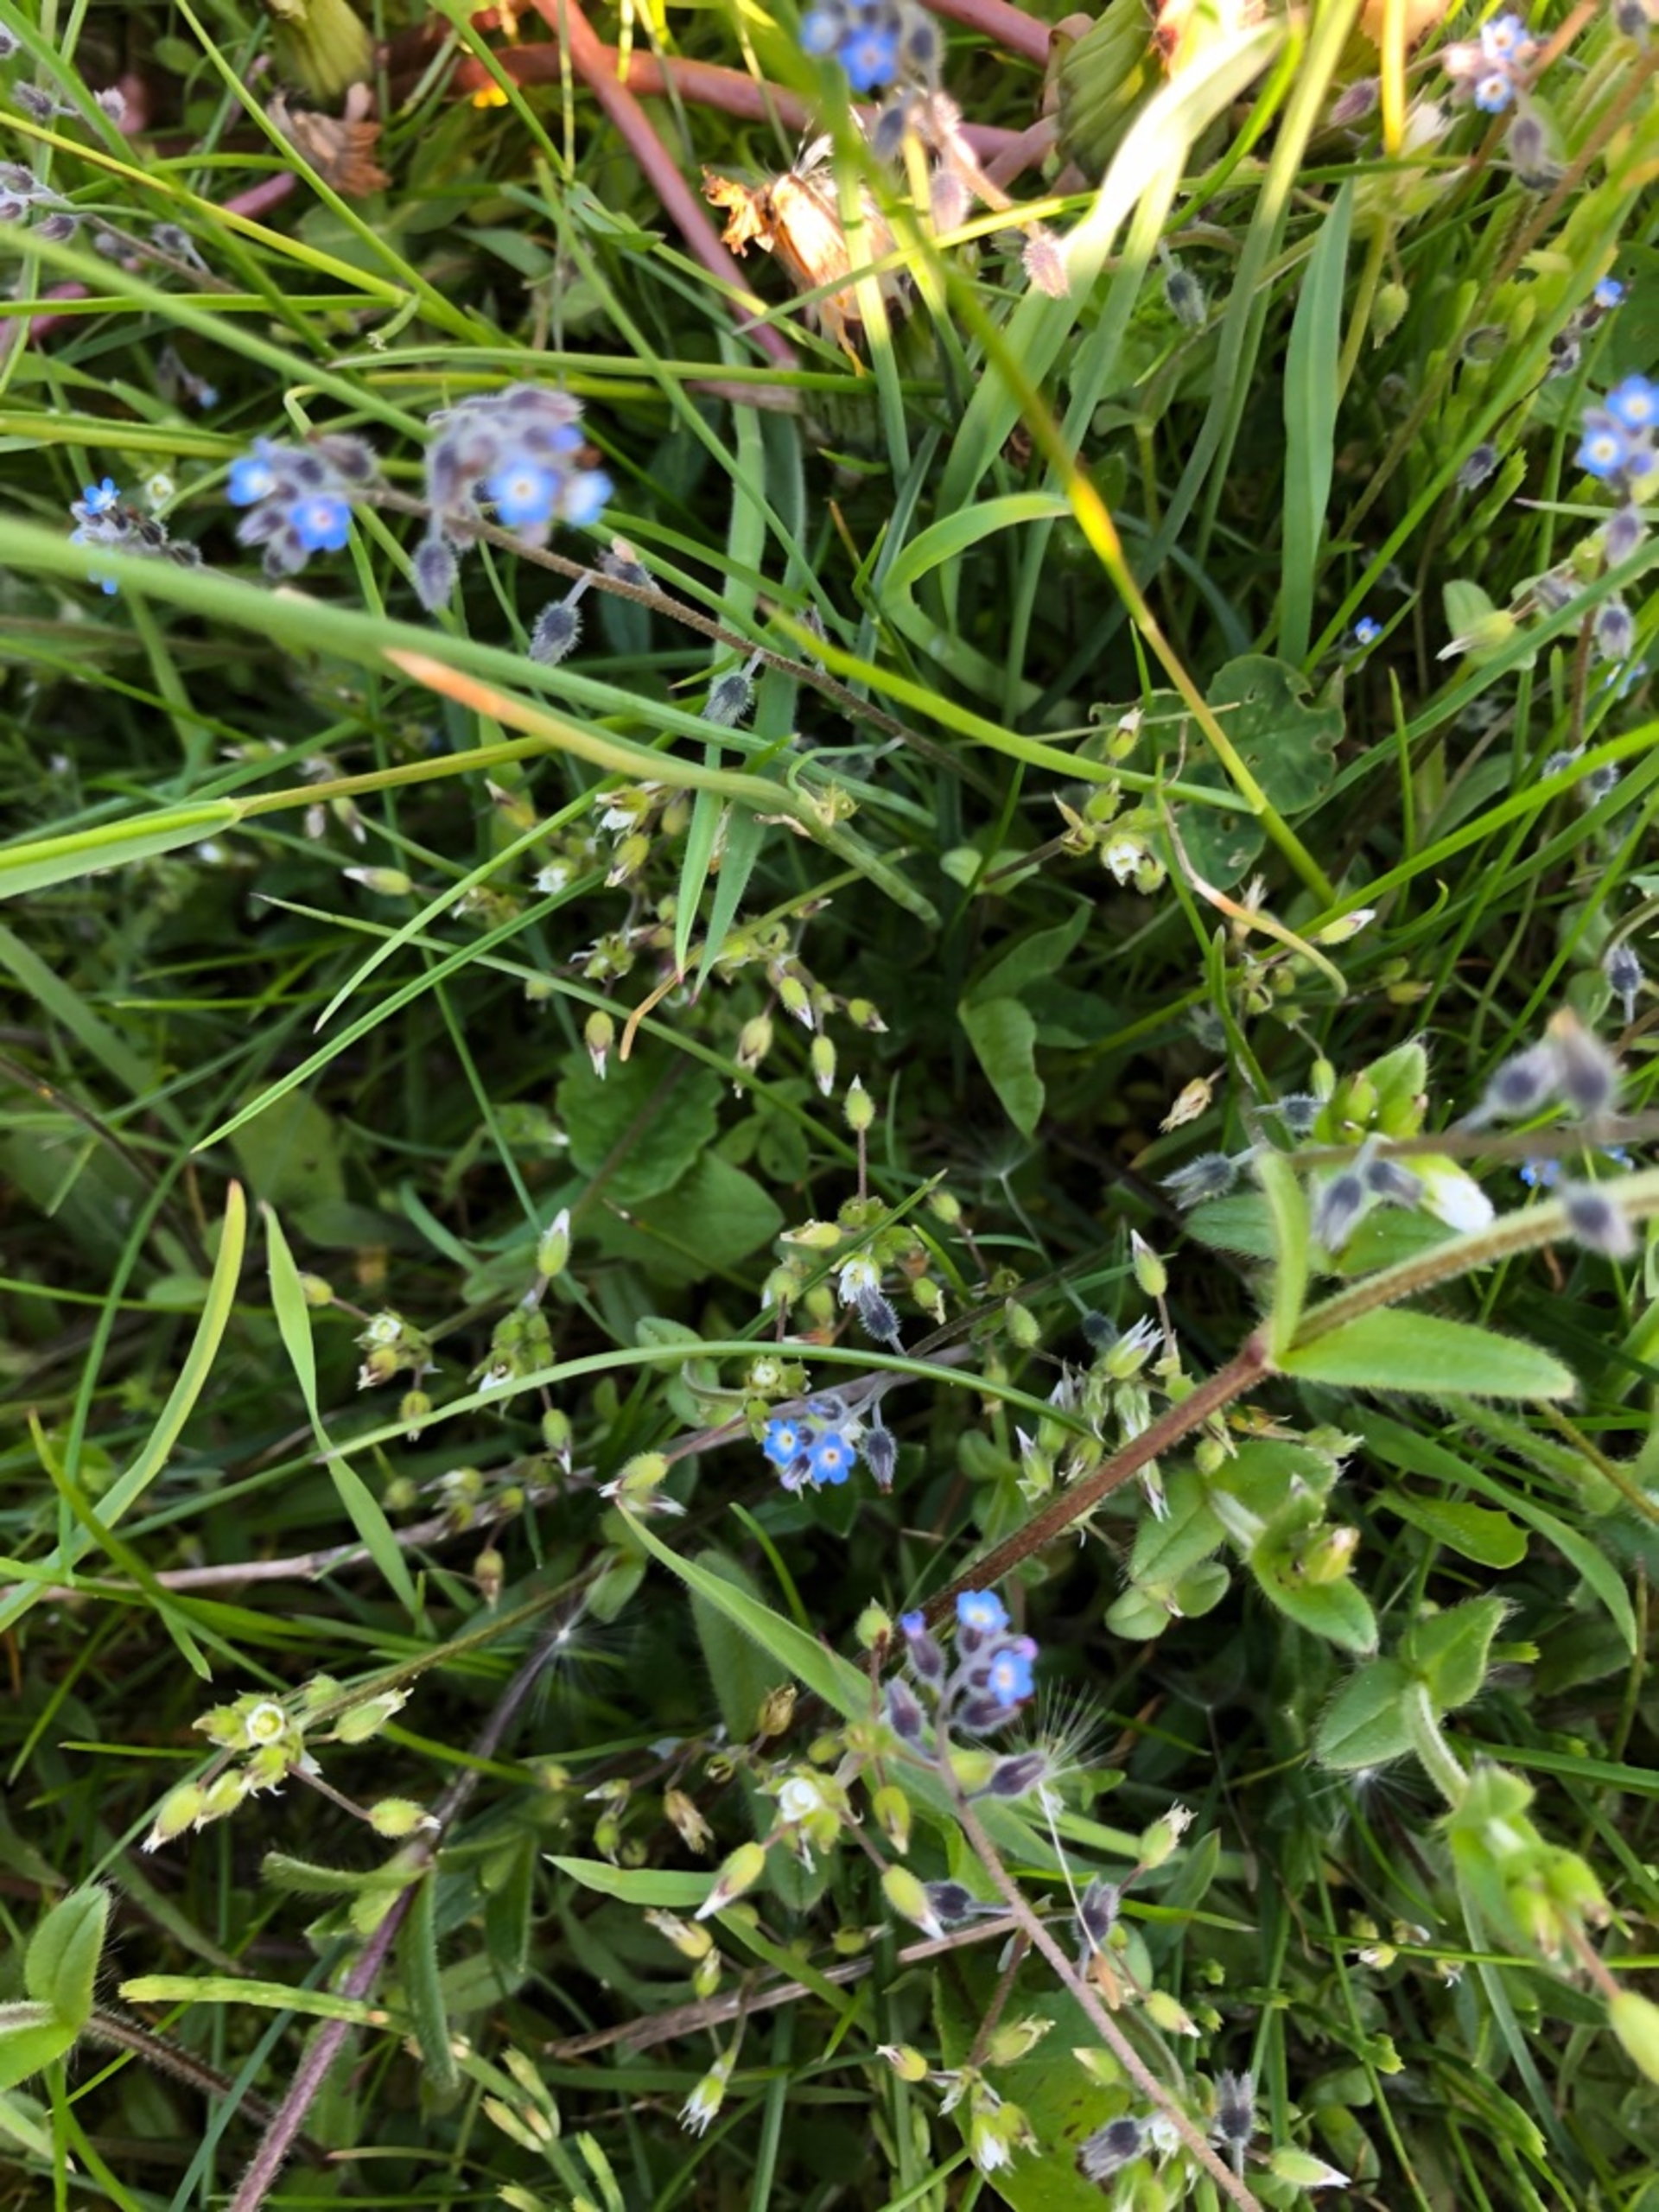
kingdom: Plantae
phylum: Tracheophyta
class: Magnoliopsida
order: Boraginales
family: Boraginaceae
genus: Myosotis
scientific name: Myosotis ramosissima
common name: Bakke-forglemmigej
